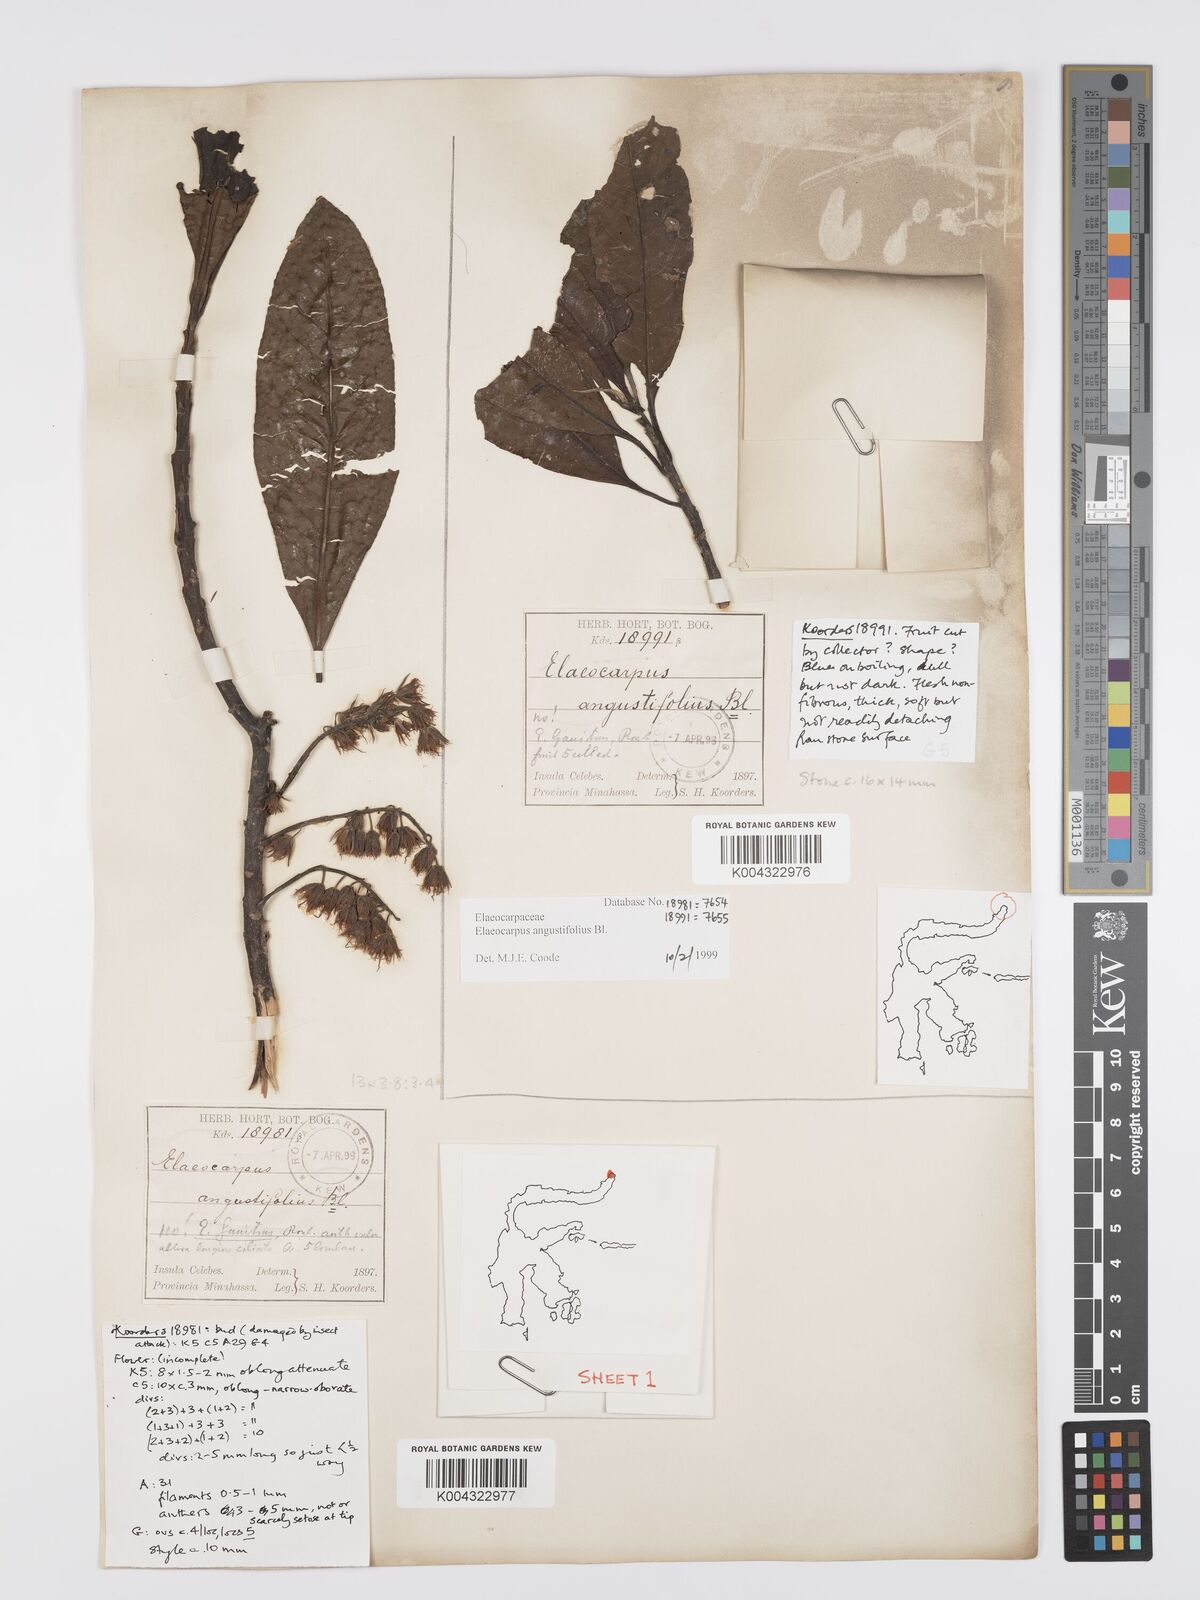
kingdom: Plantae
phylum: Tracheophyta
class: Magnoliopsida
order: Oxalidales
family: Elaeocarpaceae
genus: Elaeocarpus
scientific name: Elaeocarpus
